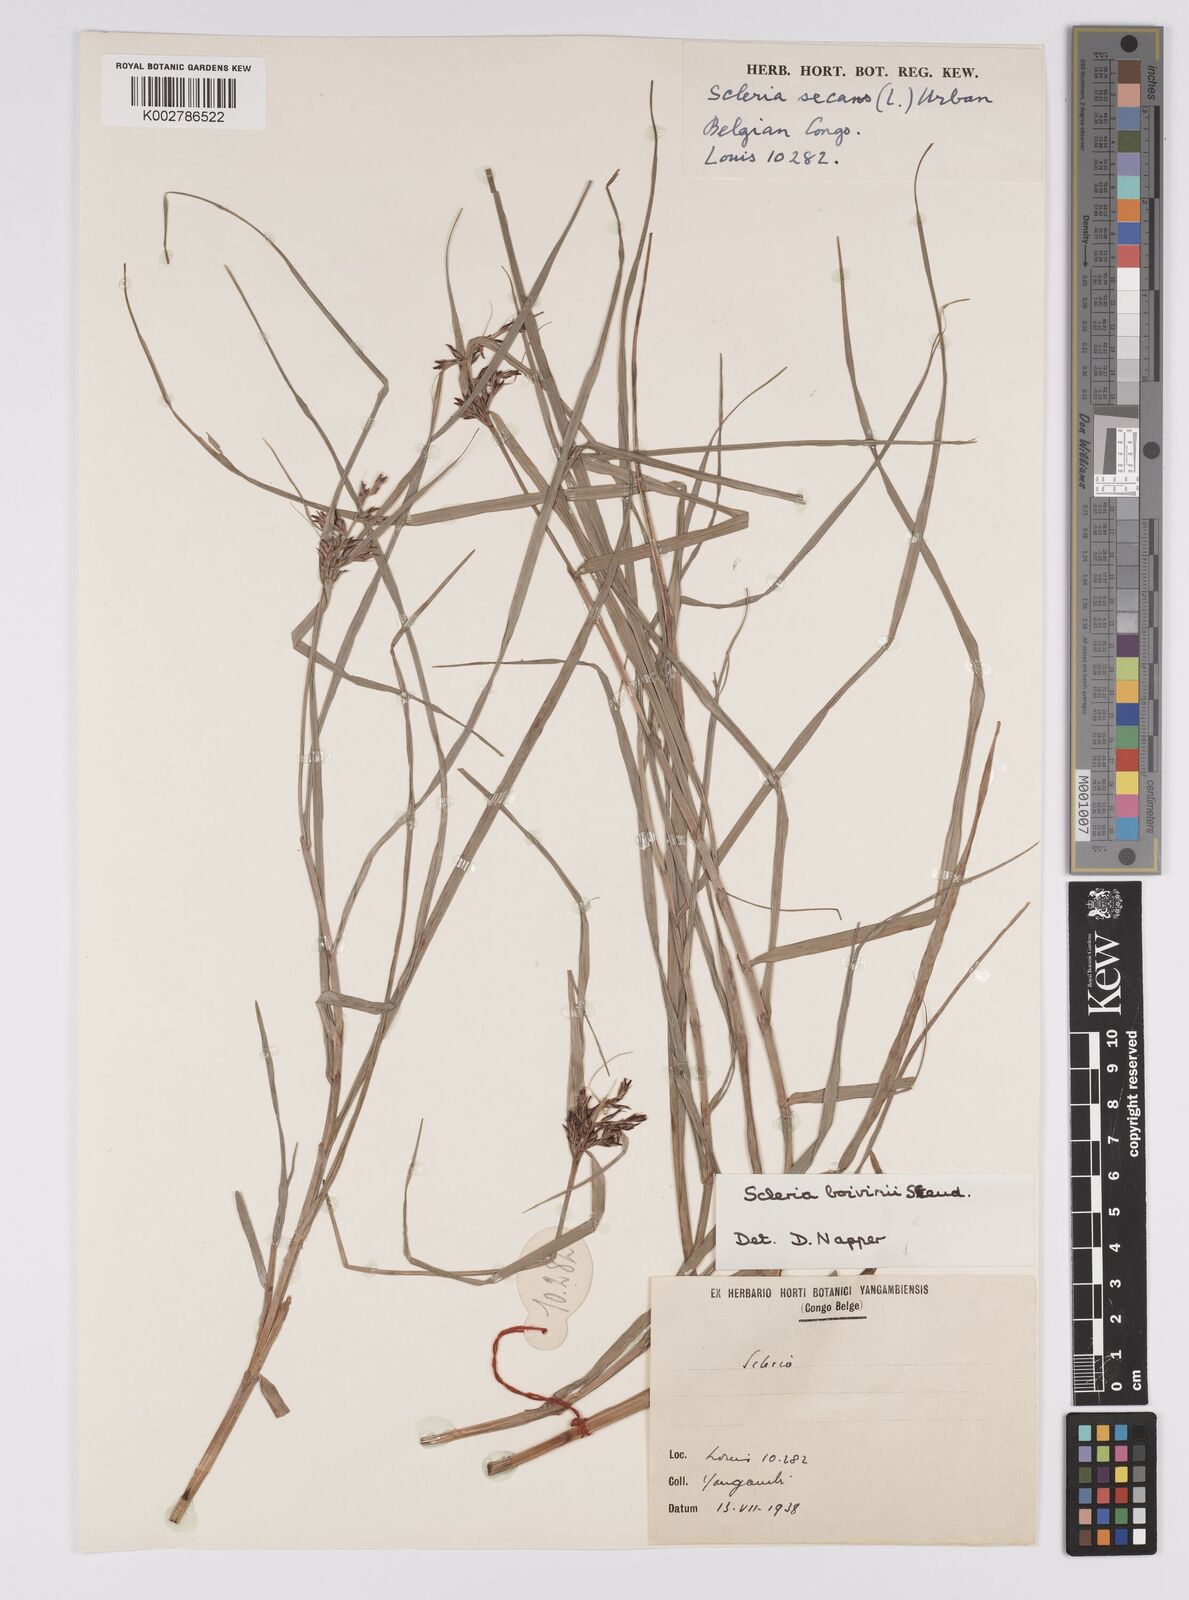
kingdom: Plantae
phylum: Tracheophyta
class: Liliopsida
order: Poales
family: Cyperaceae
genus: Scleria
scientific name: Scleria boivinii
